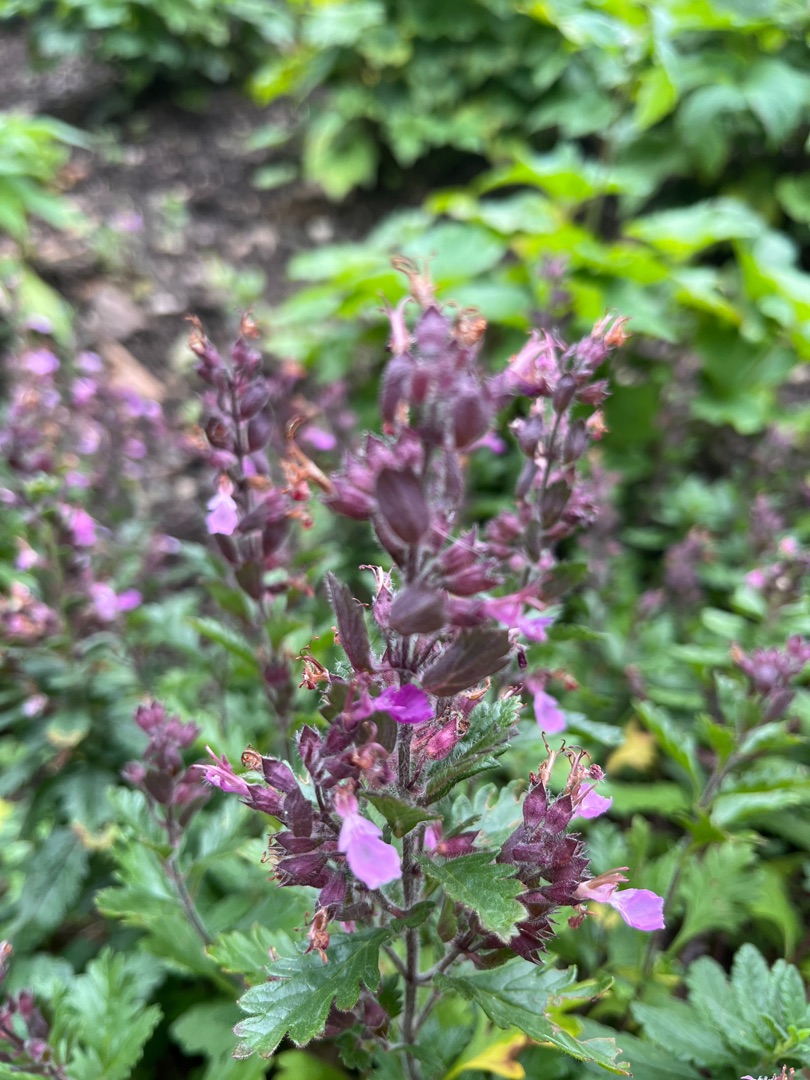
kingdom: Plantae
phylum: Tracheophyta
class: Magnoliopsida
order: Lamiales
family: Lamiaceae
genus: Teucrium
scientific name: Teucrium chamaedrys
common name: Ædel kortlæbe
